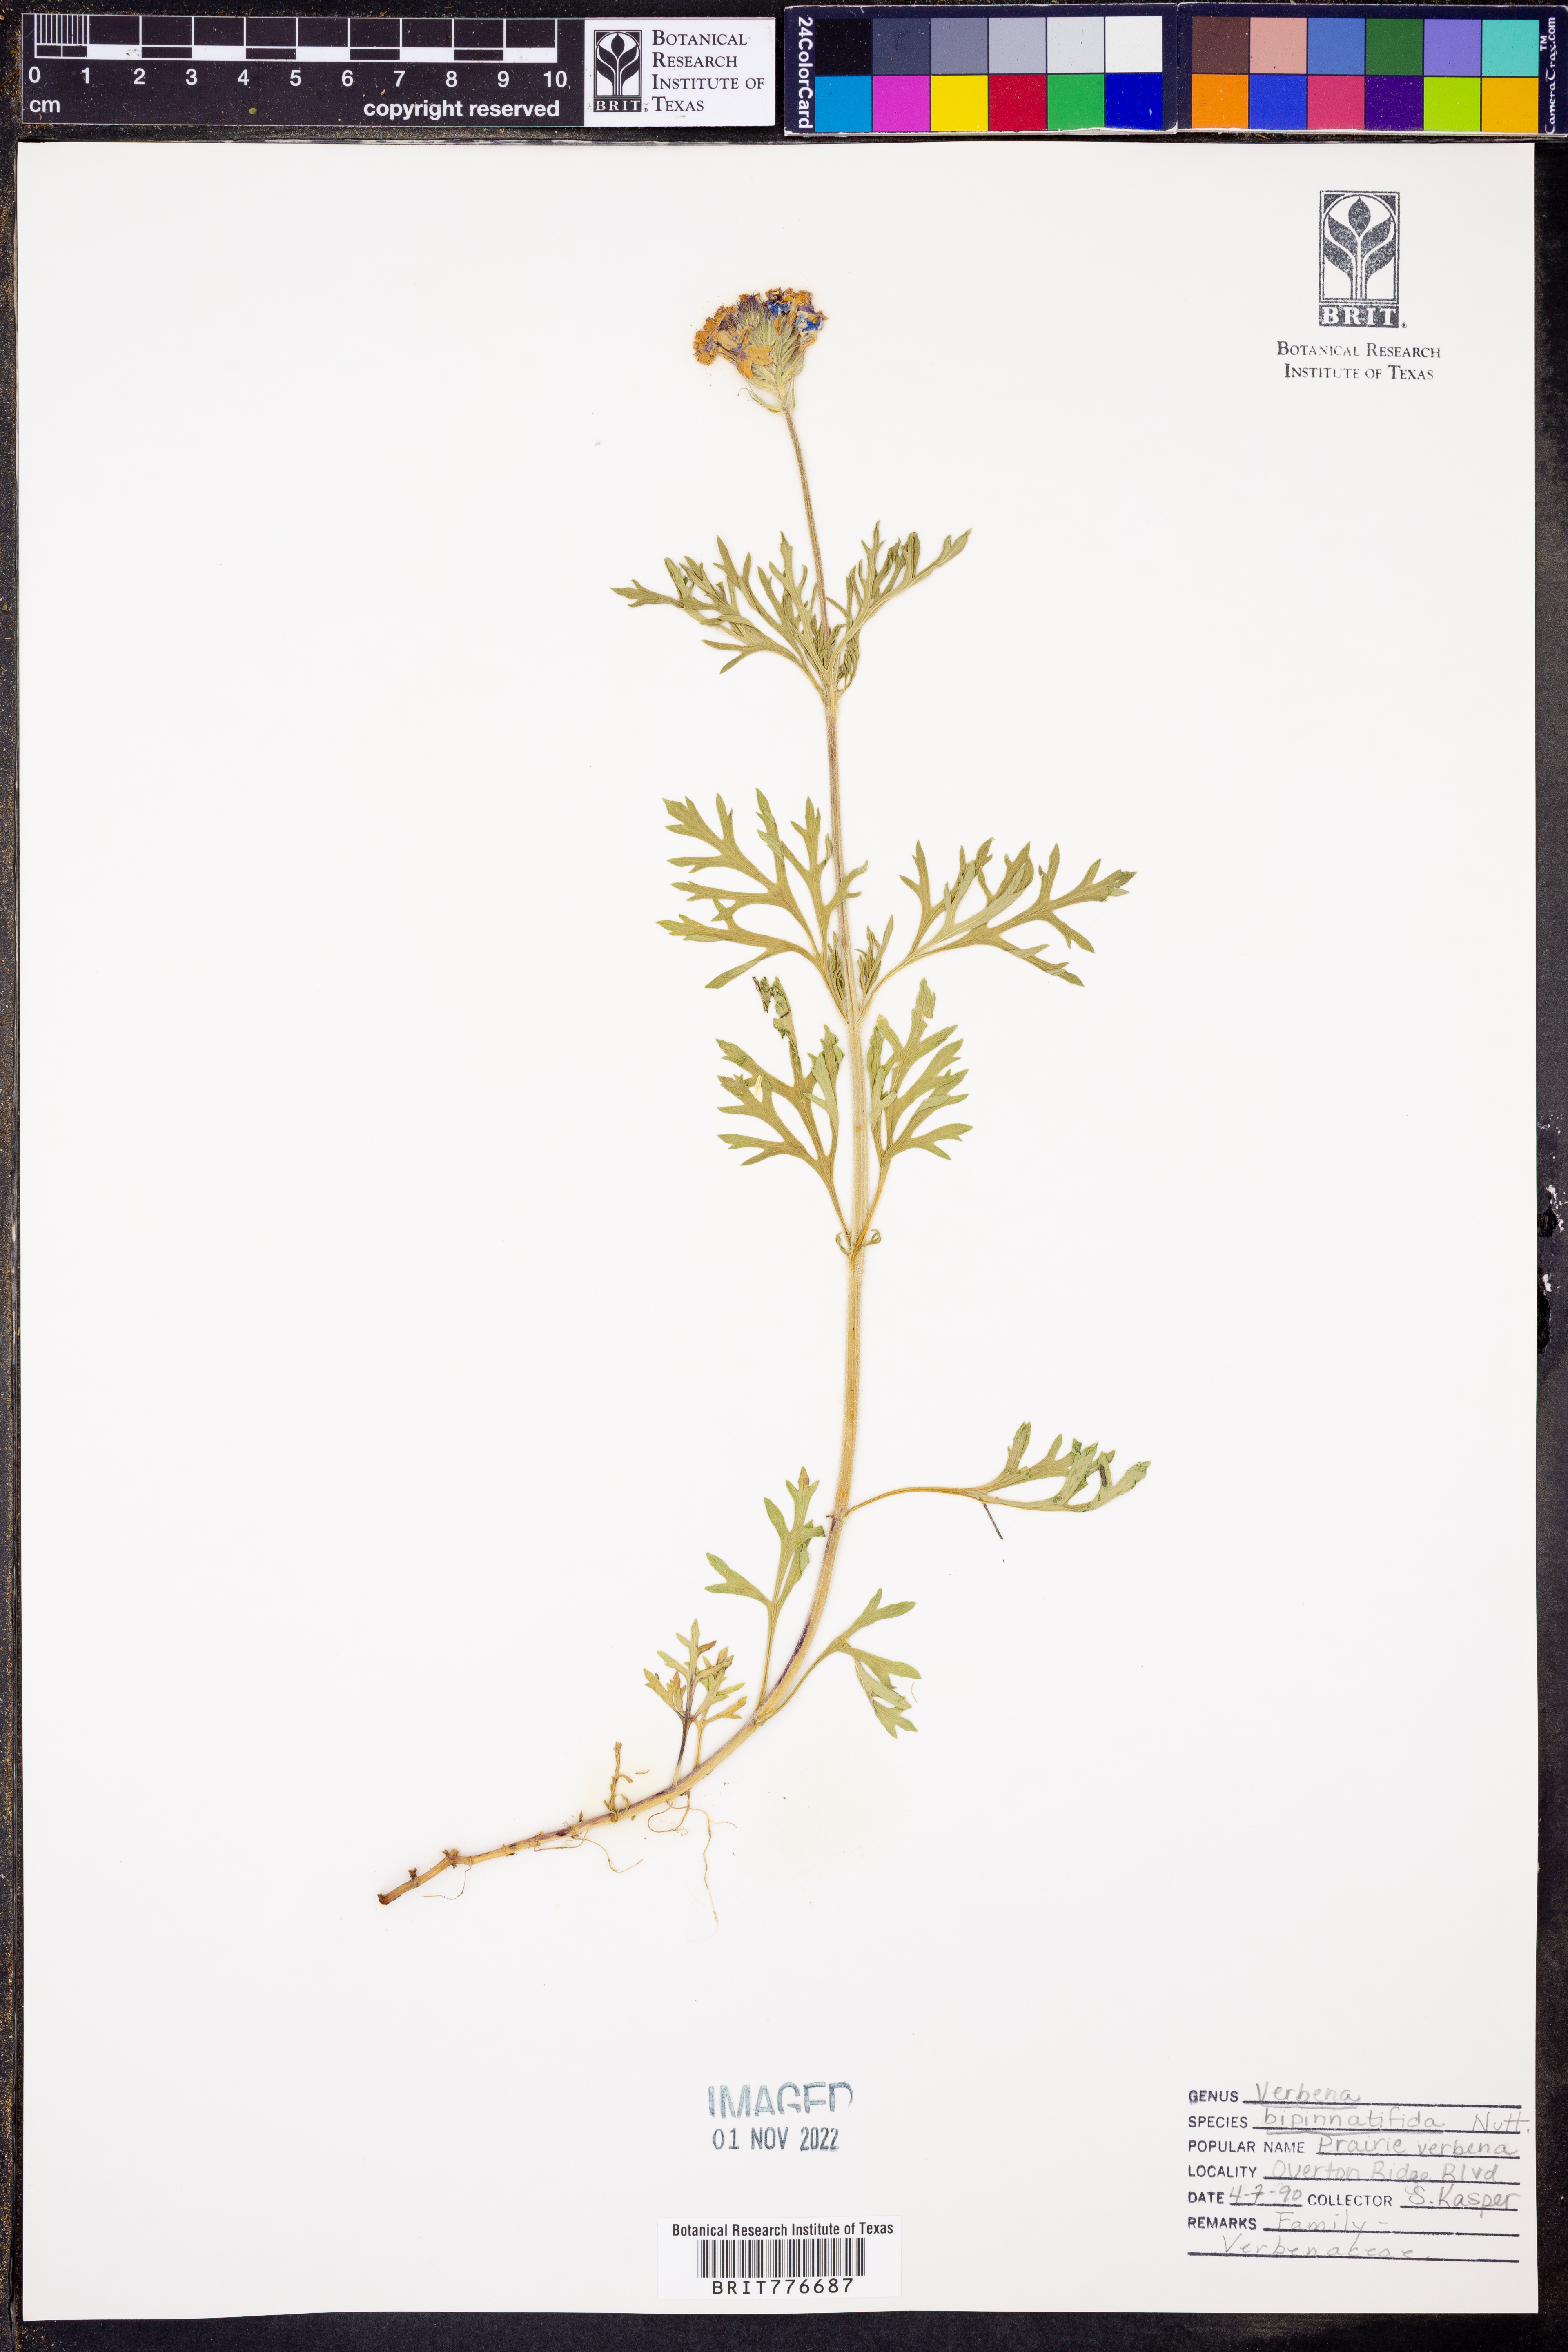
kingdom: Plantae
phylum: Tracheophyta
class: Magnoliopsida
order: Lamiales
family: Verbenaceae
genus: Verbena
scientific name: Verbena bipinnatifida
